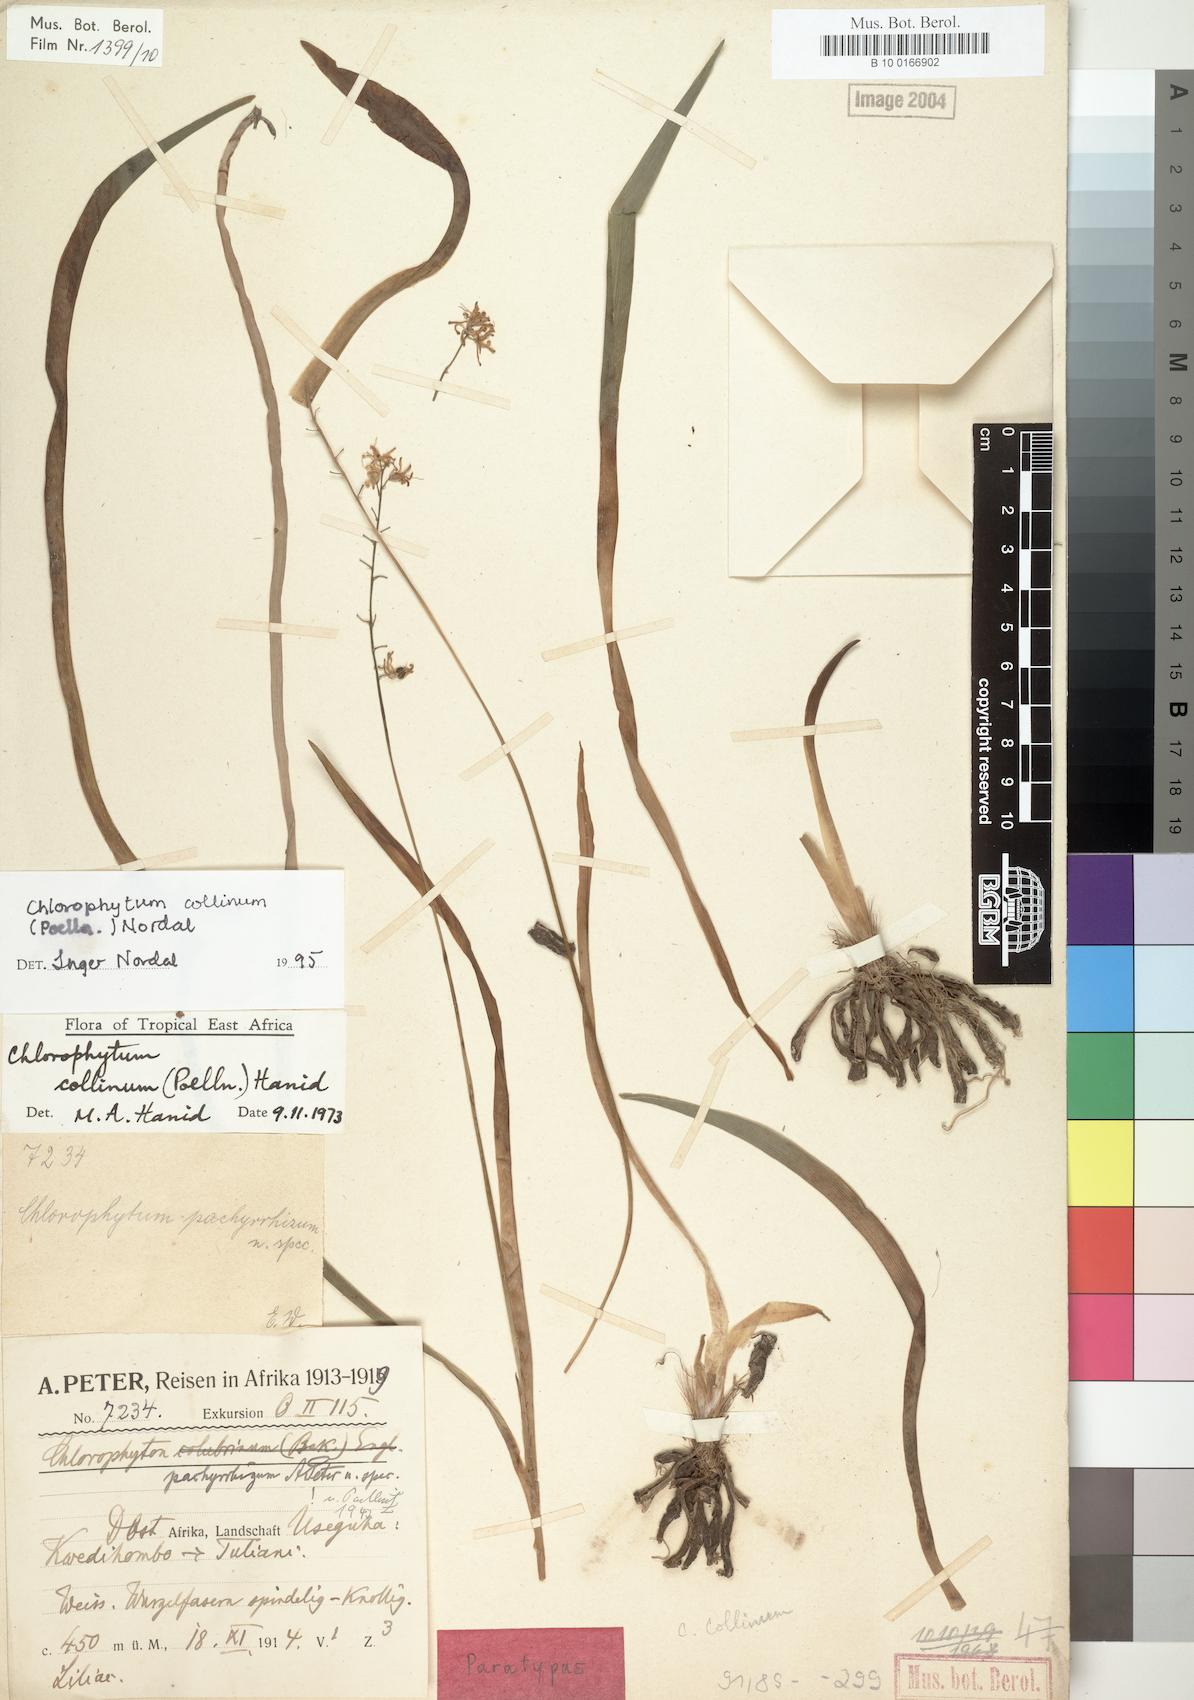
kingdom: Plantae
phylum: Tracheophyta
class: Liliopsida
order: Asparagales
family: Asparagaceae
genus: Chlorophytum
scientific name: Chlorophytum collinum
